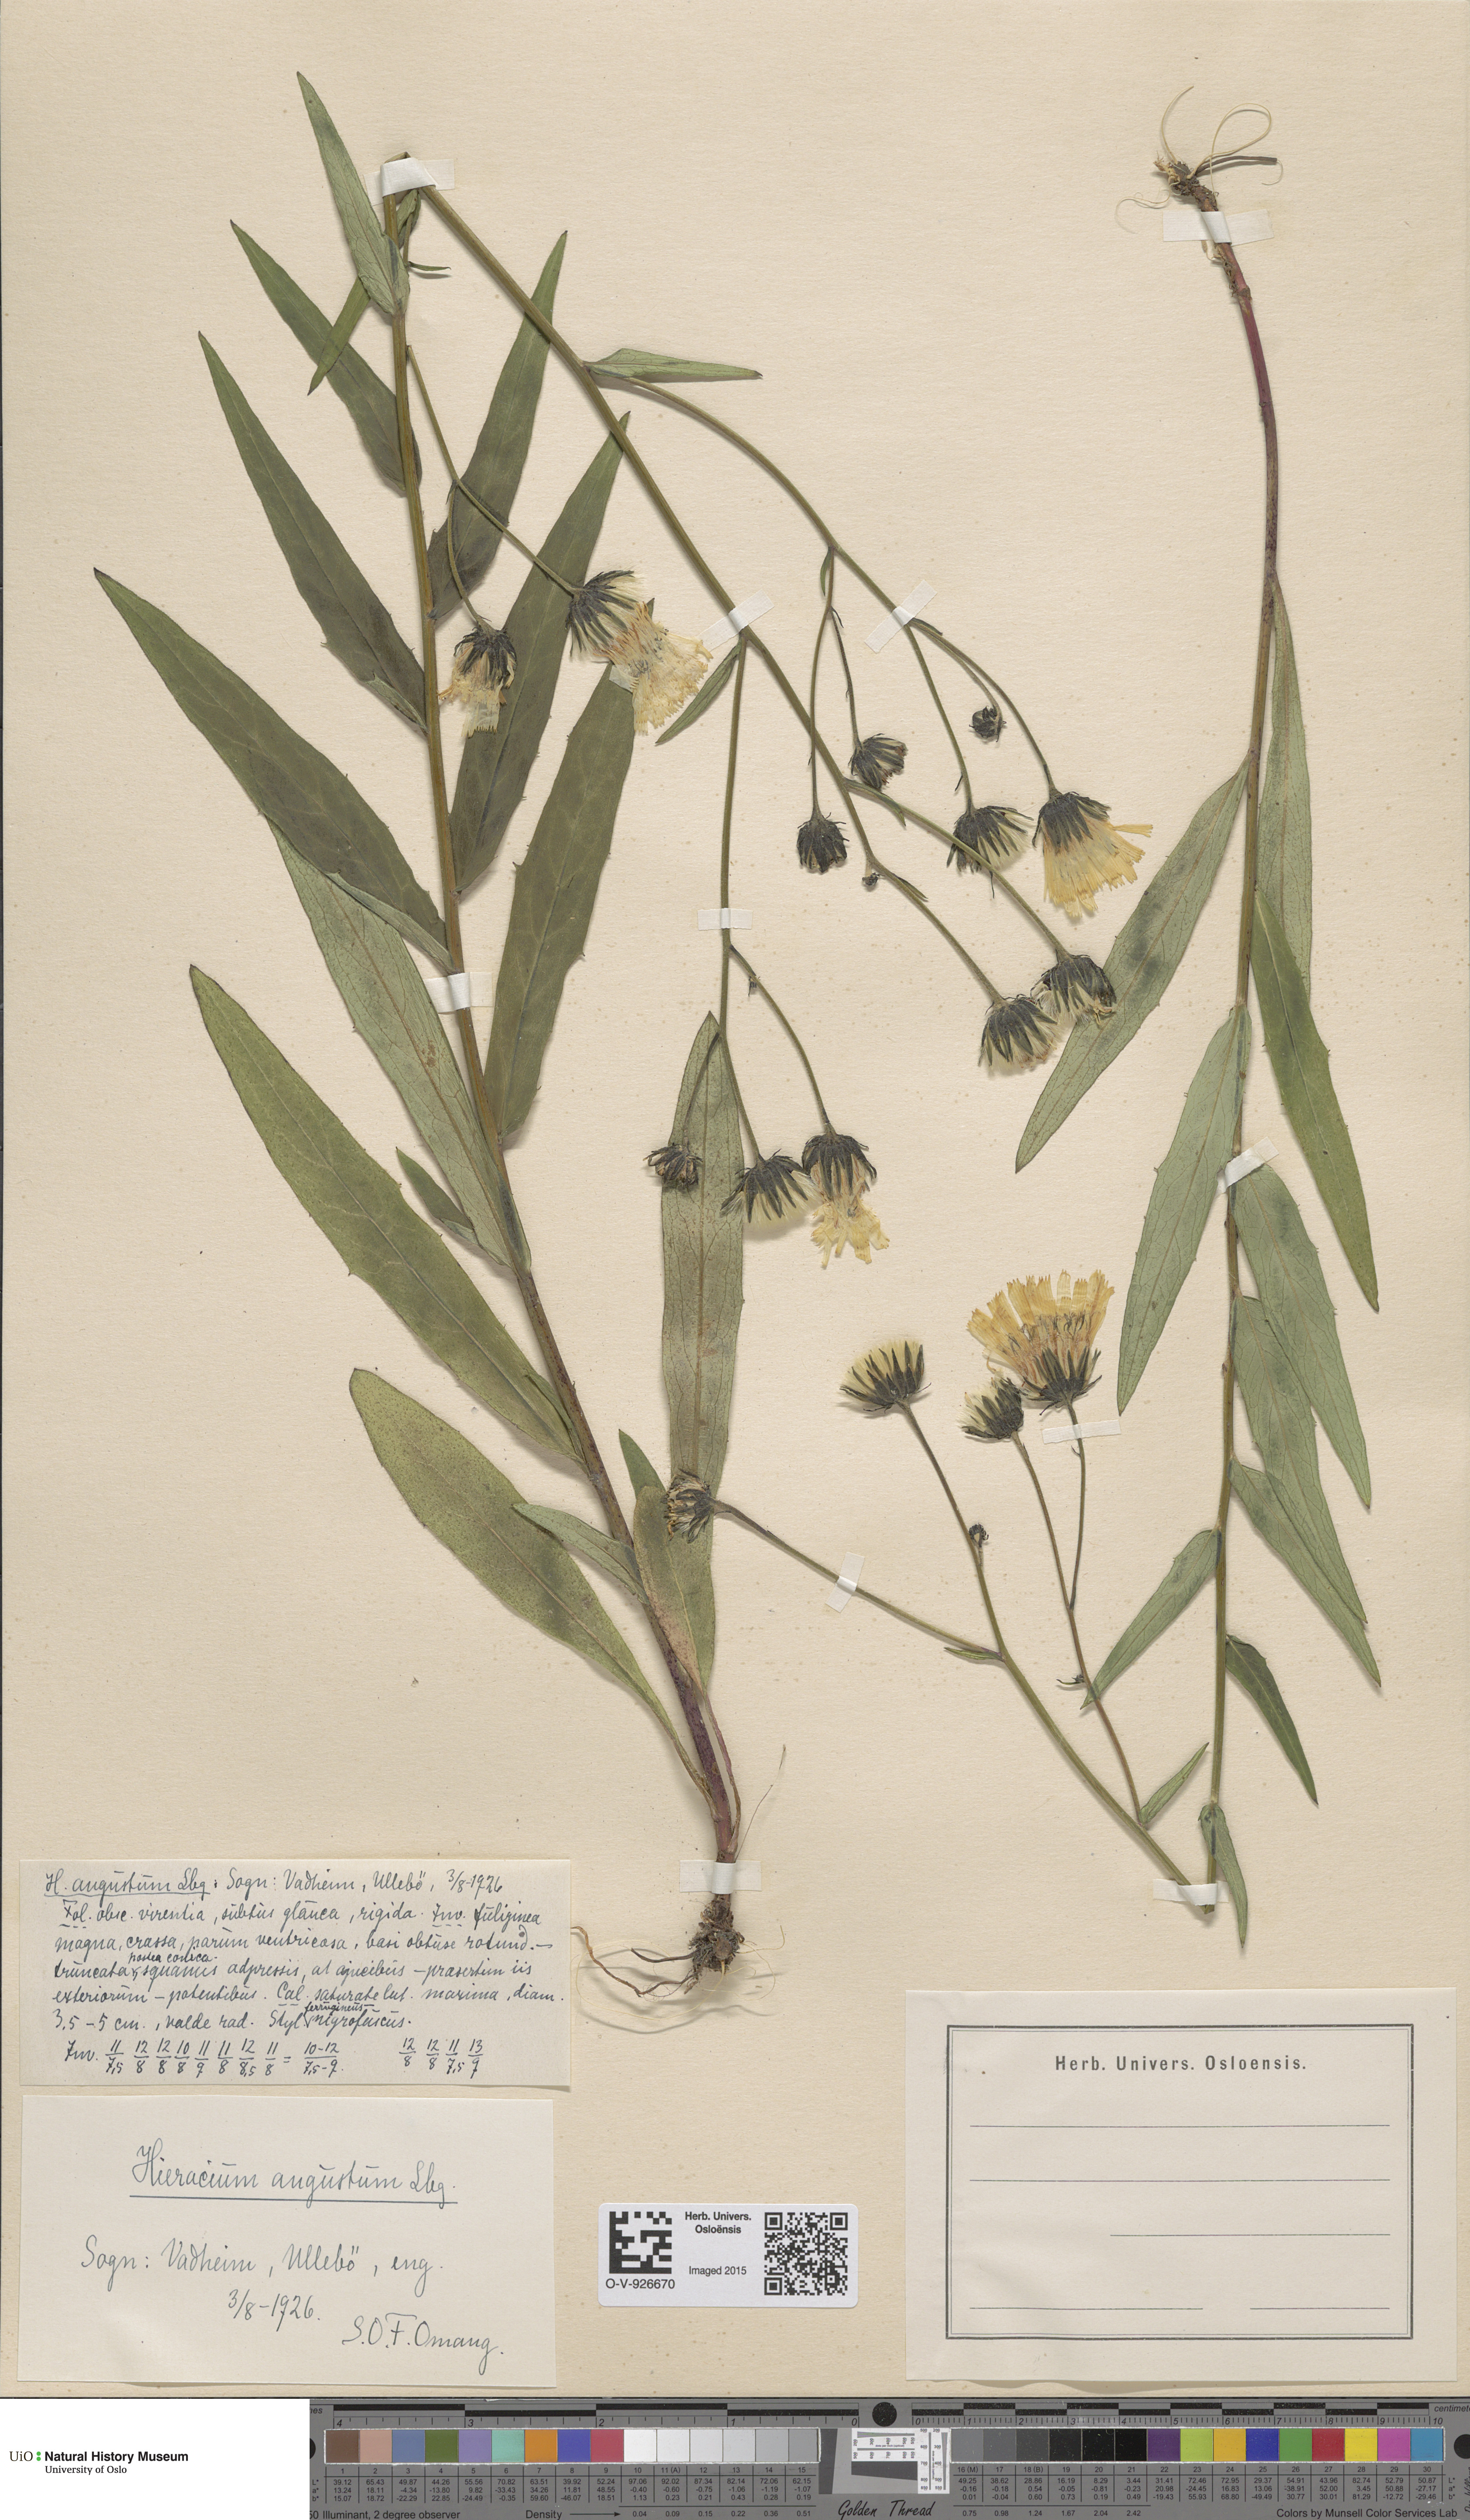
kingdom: Plantae
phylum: Tracheophyta
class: Magnoliopsida
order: Asterales
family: Asteraceae
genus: Hieracium
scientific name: Hieracium angustum
